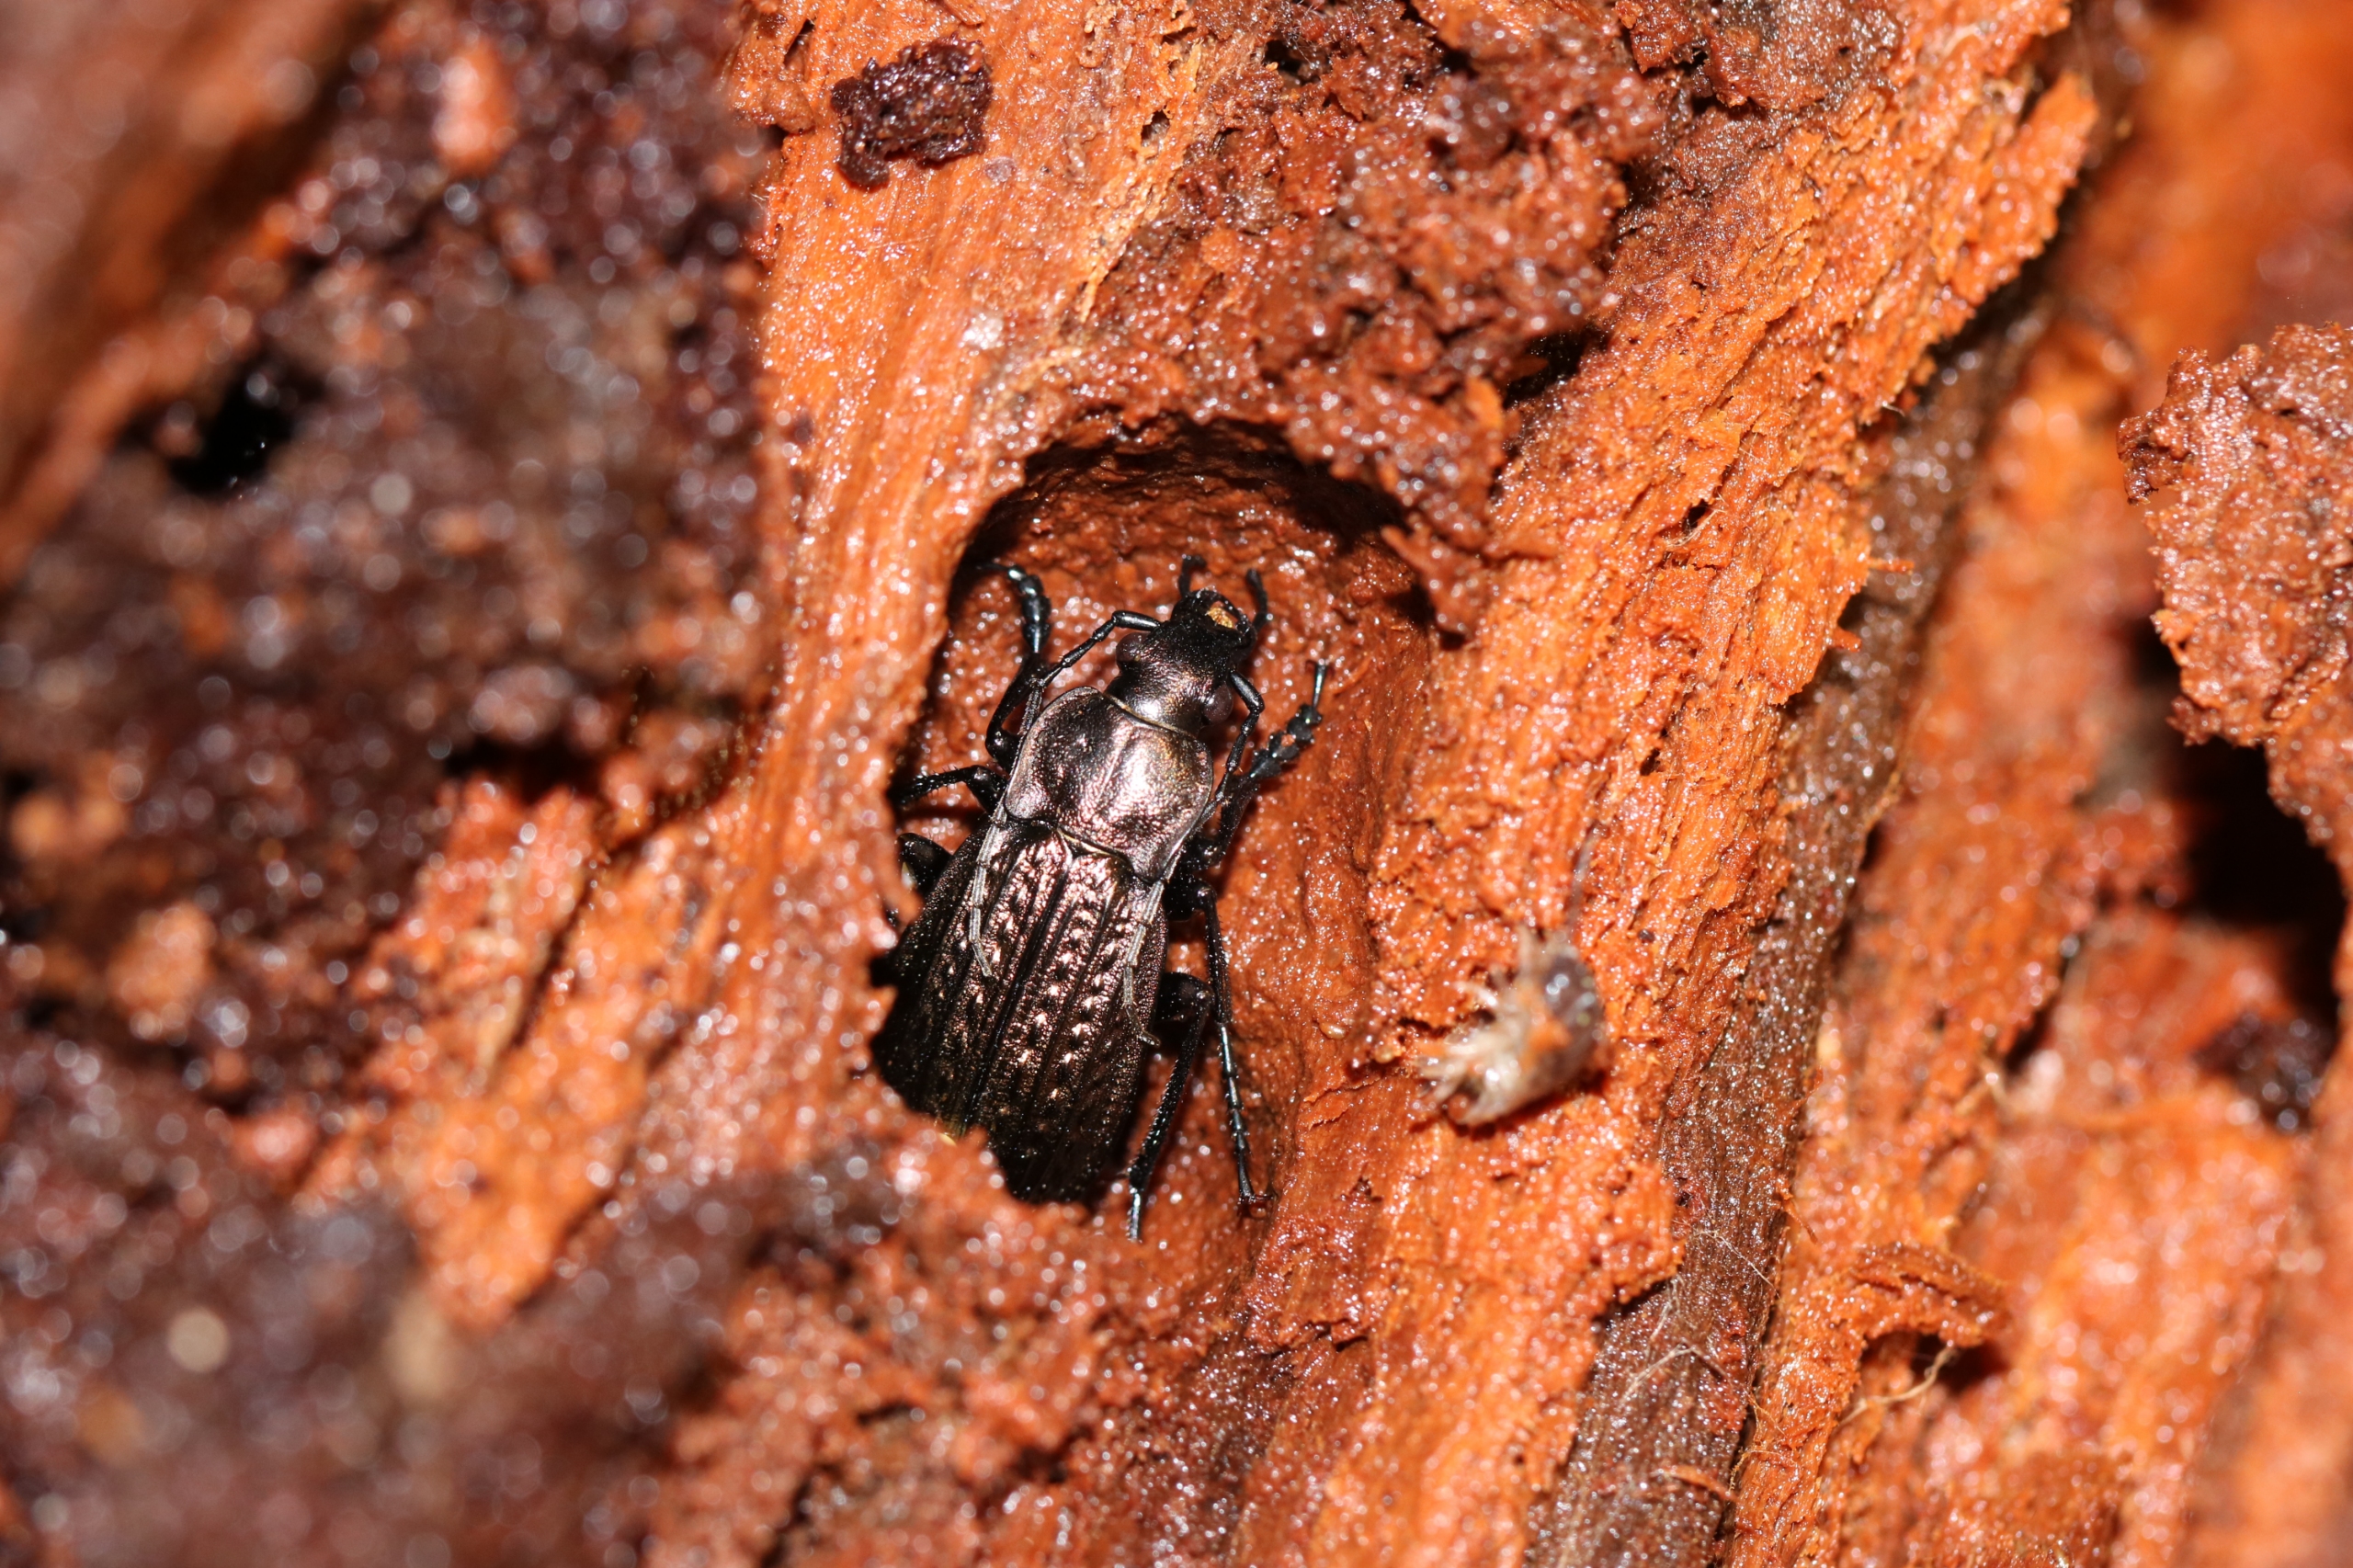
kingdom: Animalia
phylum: Arthropoda
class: Insecta
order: Coleoptera
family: Carabidae
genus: Carabus
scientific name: Carabus granulatus
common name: Kornet løber
